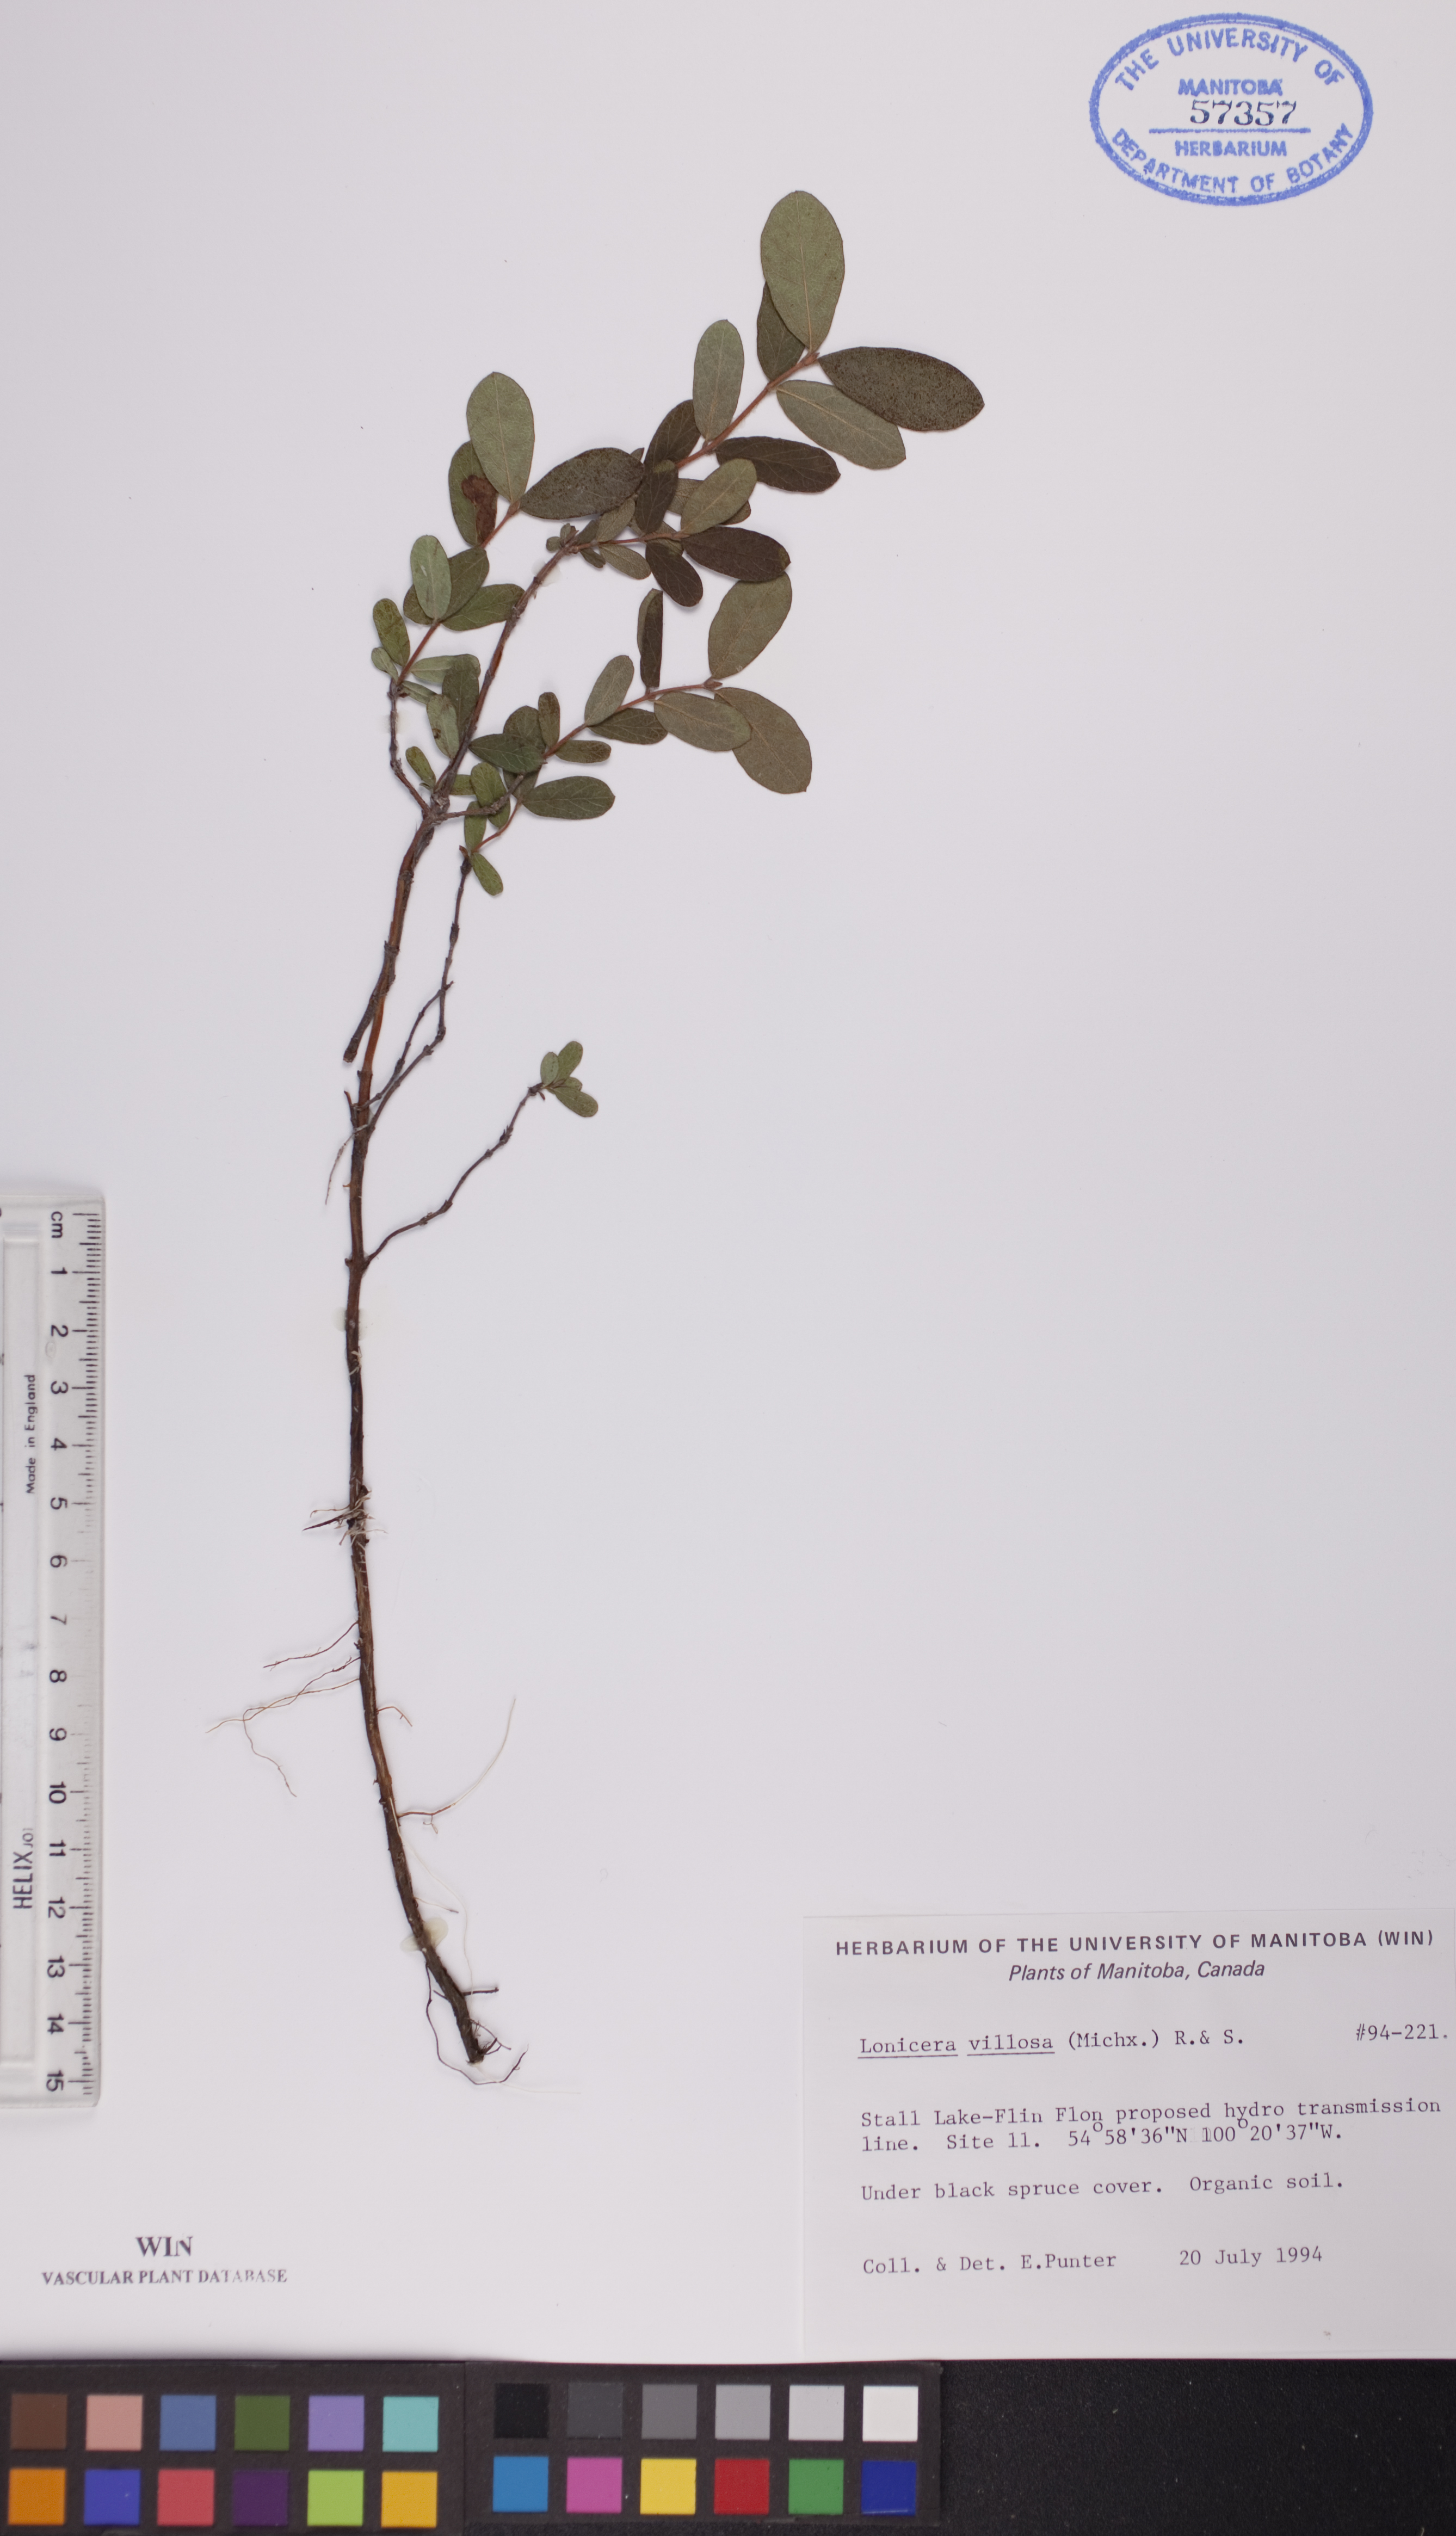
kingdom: Plantae
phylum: Tracheophyta
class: Magnoliopsida
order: Dipsacales
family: Caprifoliaceae
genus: Lonicera
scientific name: Lonicera villosa
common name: Mountain fly-honeysuckle
